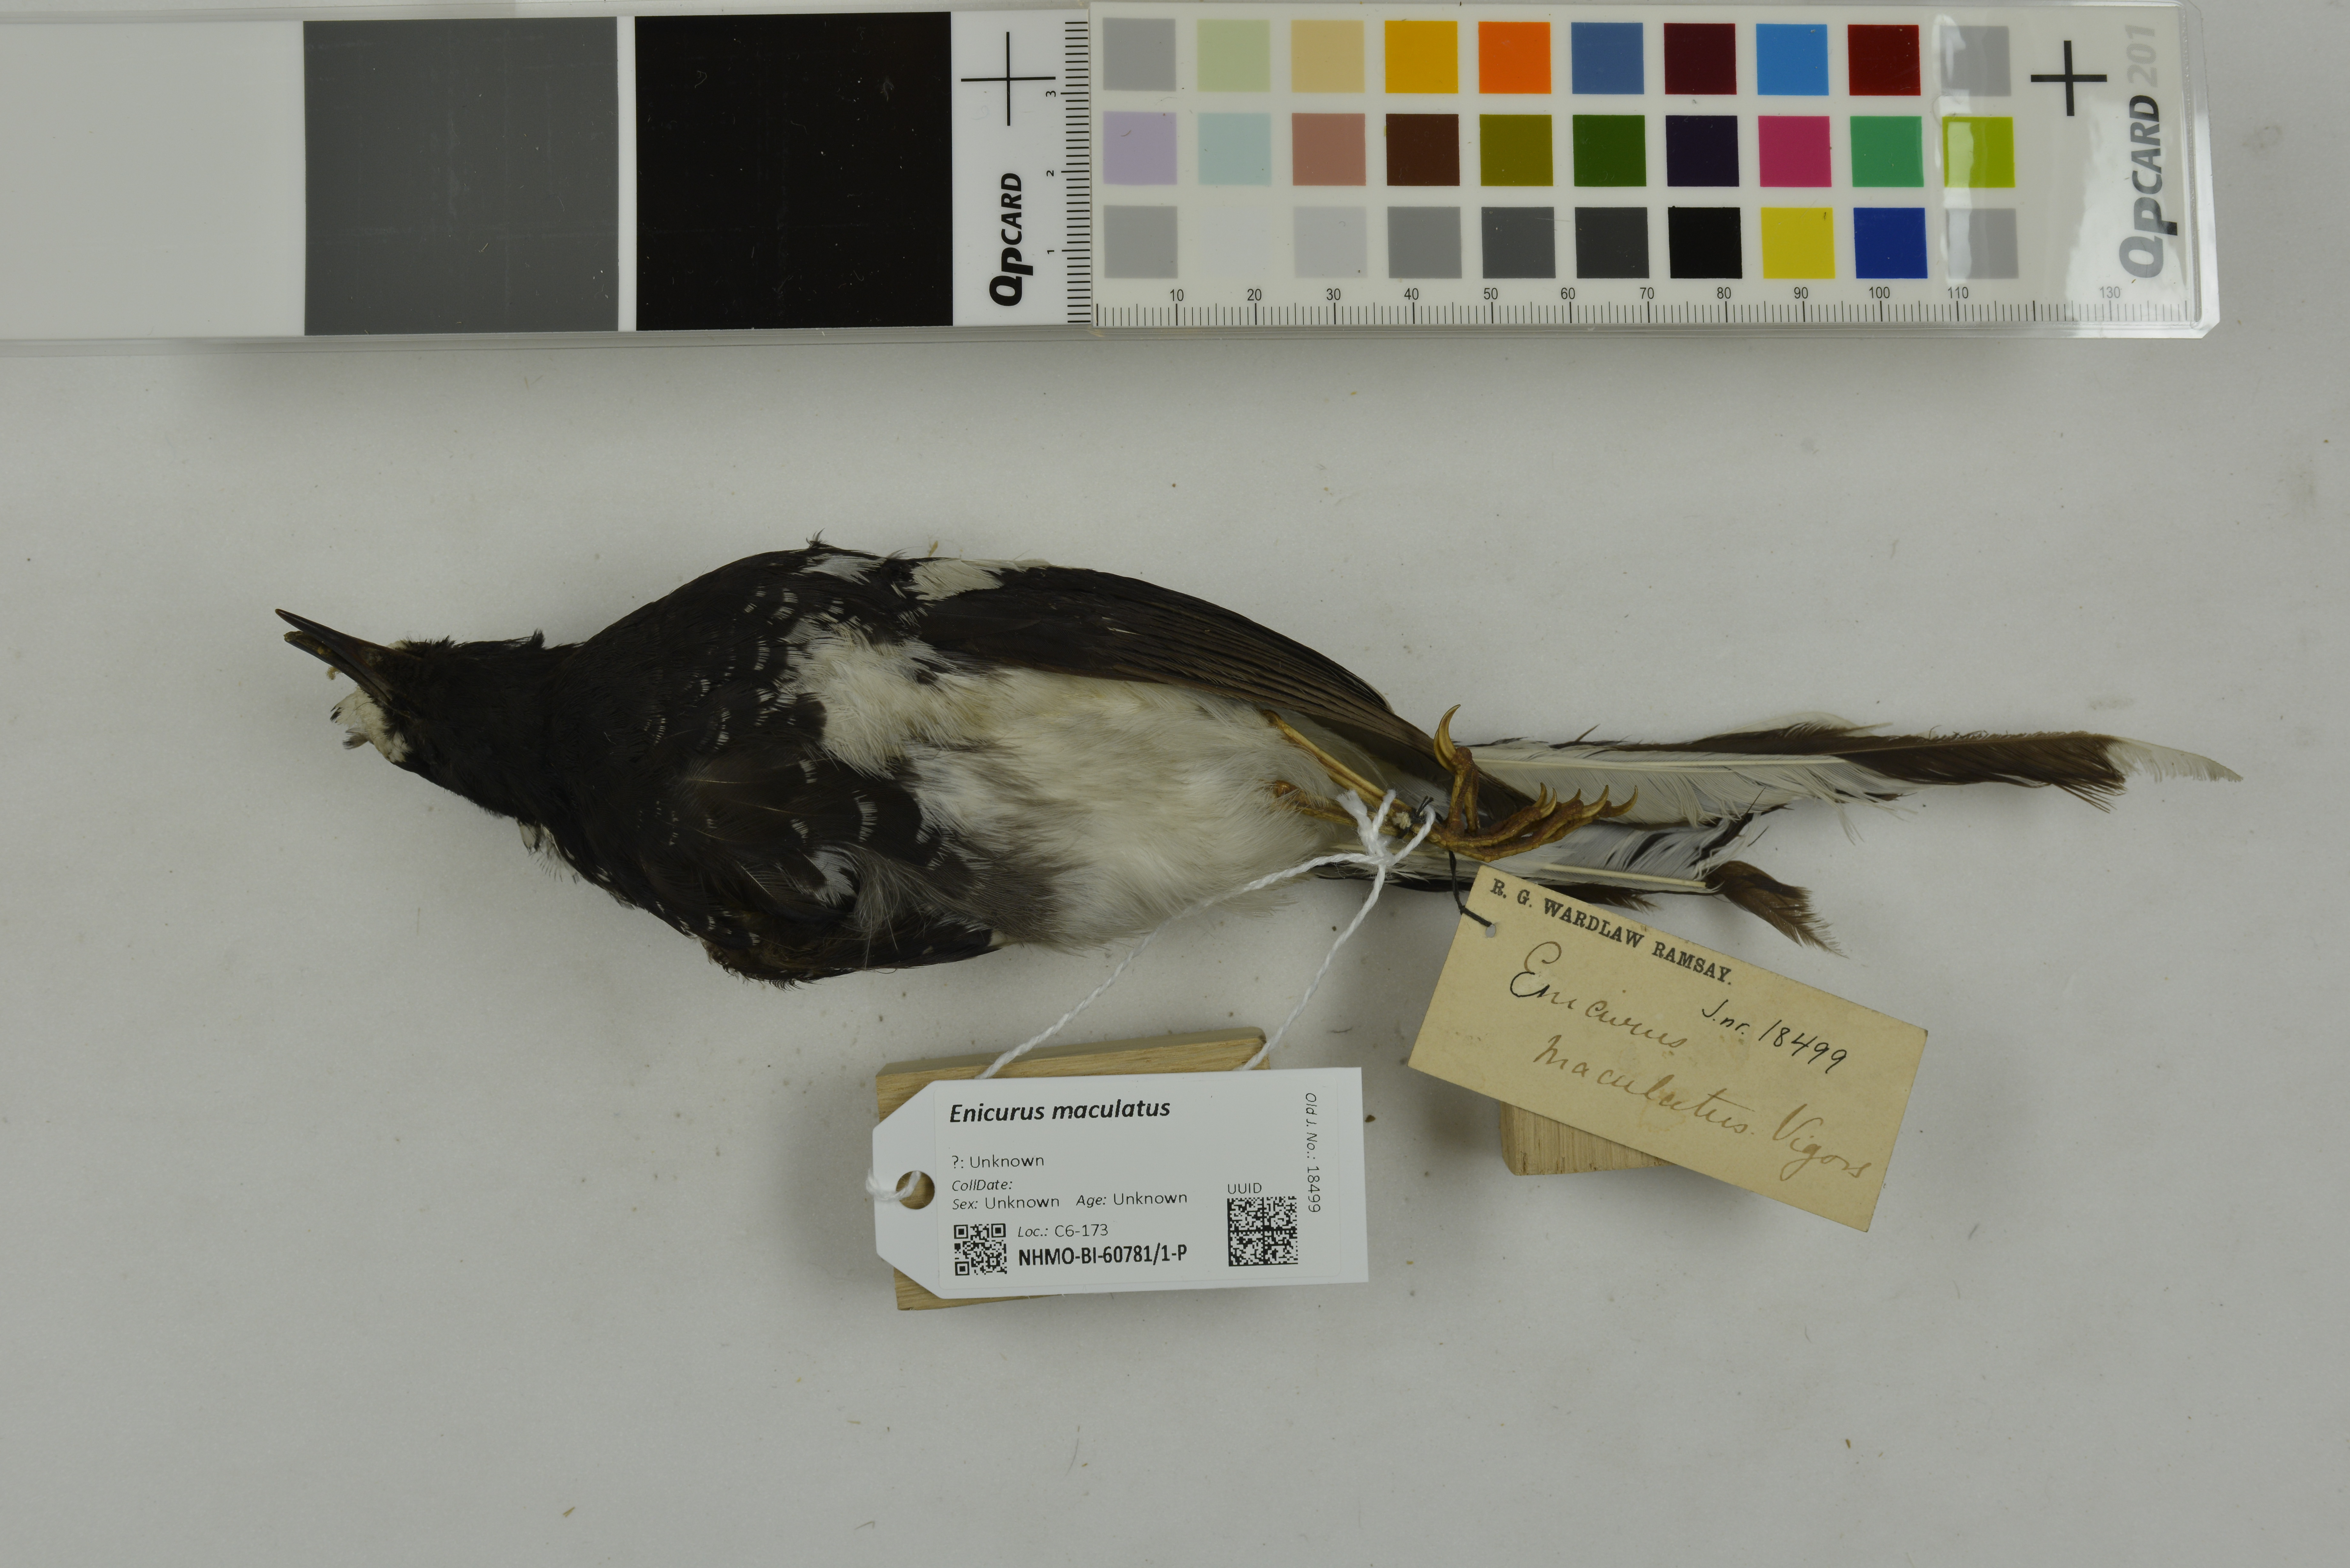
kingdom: Animalia
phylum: Chordata
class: Aves
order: Passeriformes
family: Muscicapidae
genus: Enicurus
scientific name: Enicurus maculatus
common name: Spotted forktail
